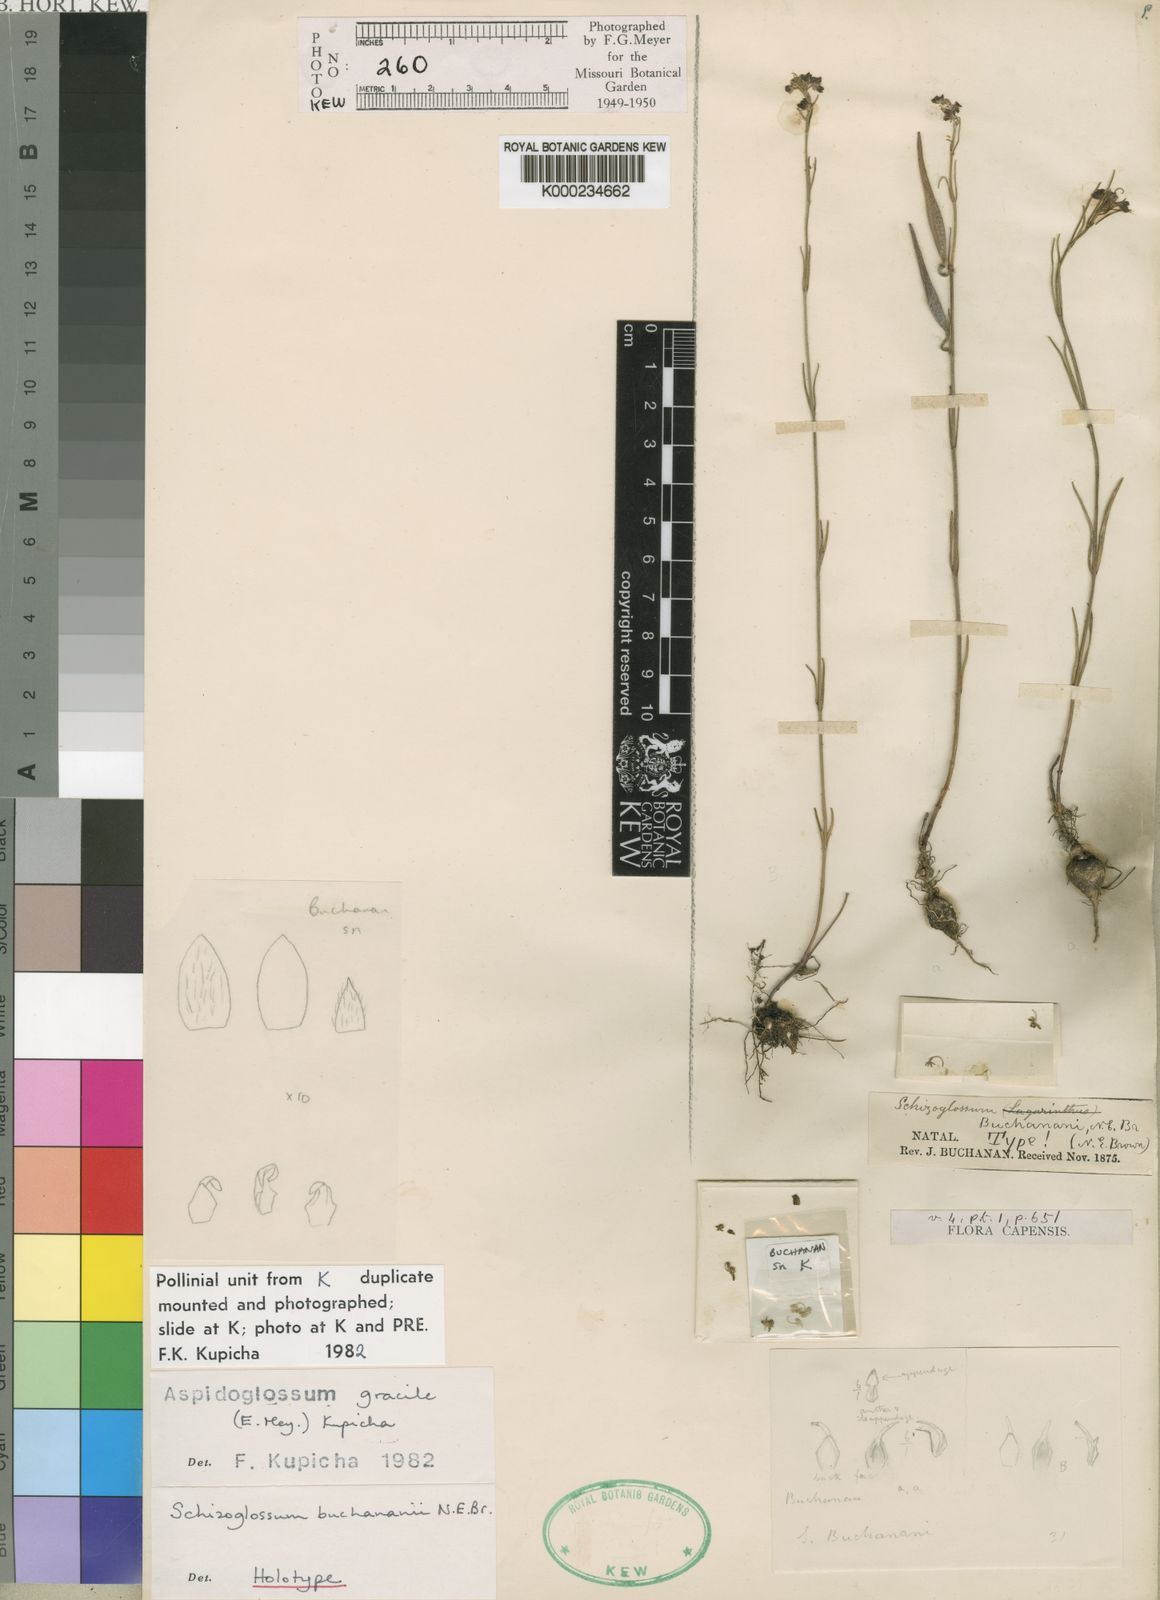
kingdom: Plantae
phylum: Tracheophyta
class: Magnoliopsida
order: Gentianales
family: Apocynaceae
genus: Aspidoglossum
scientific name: Aspidoglossum gracile
